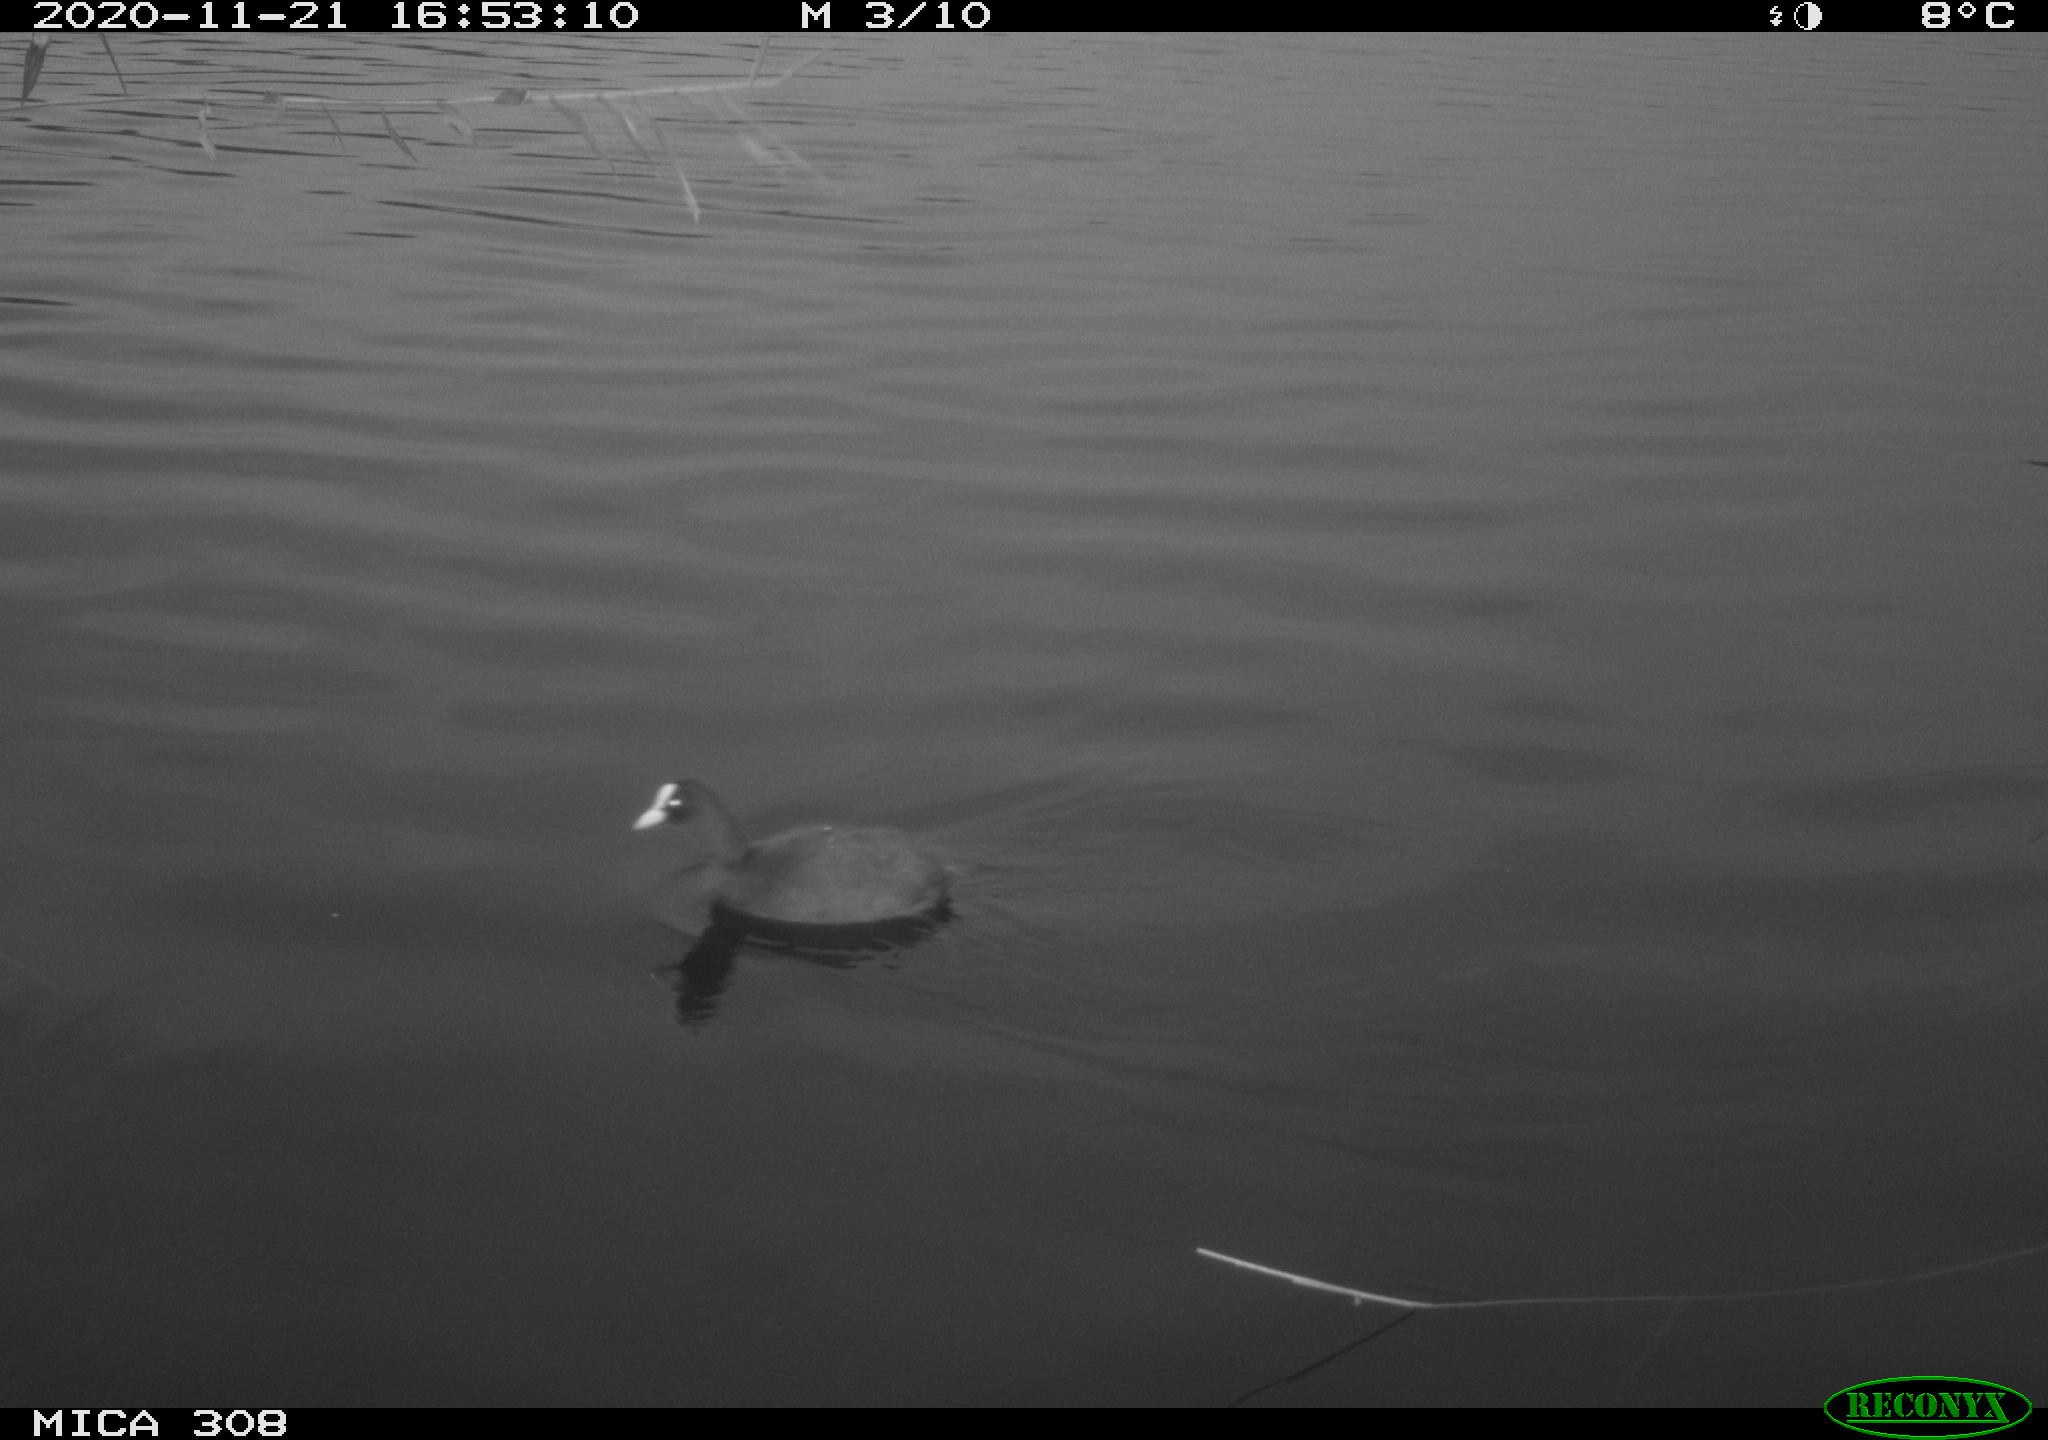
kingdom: Animalia
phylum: Chordata
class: Aves
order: Gruiformes
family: Rallidae
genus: Gallinula
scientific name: Gallinula chloropus
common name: Common moorhen
